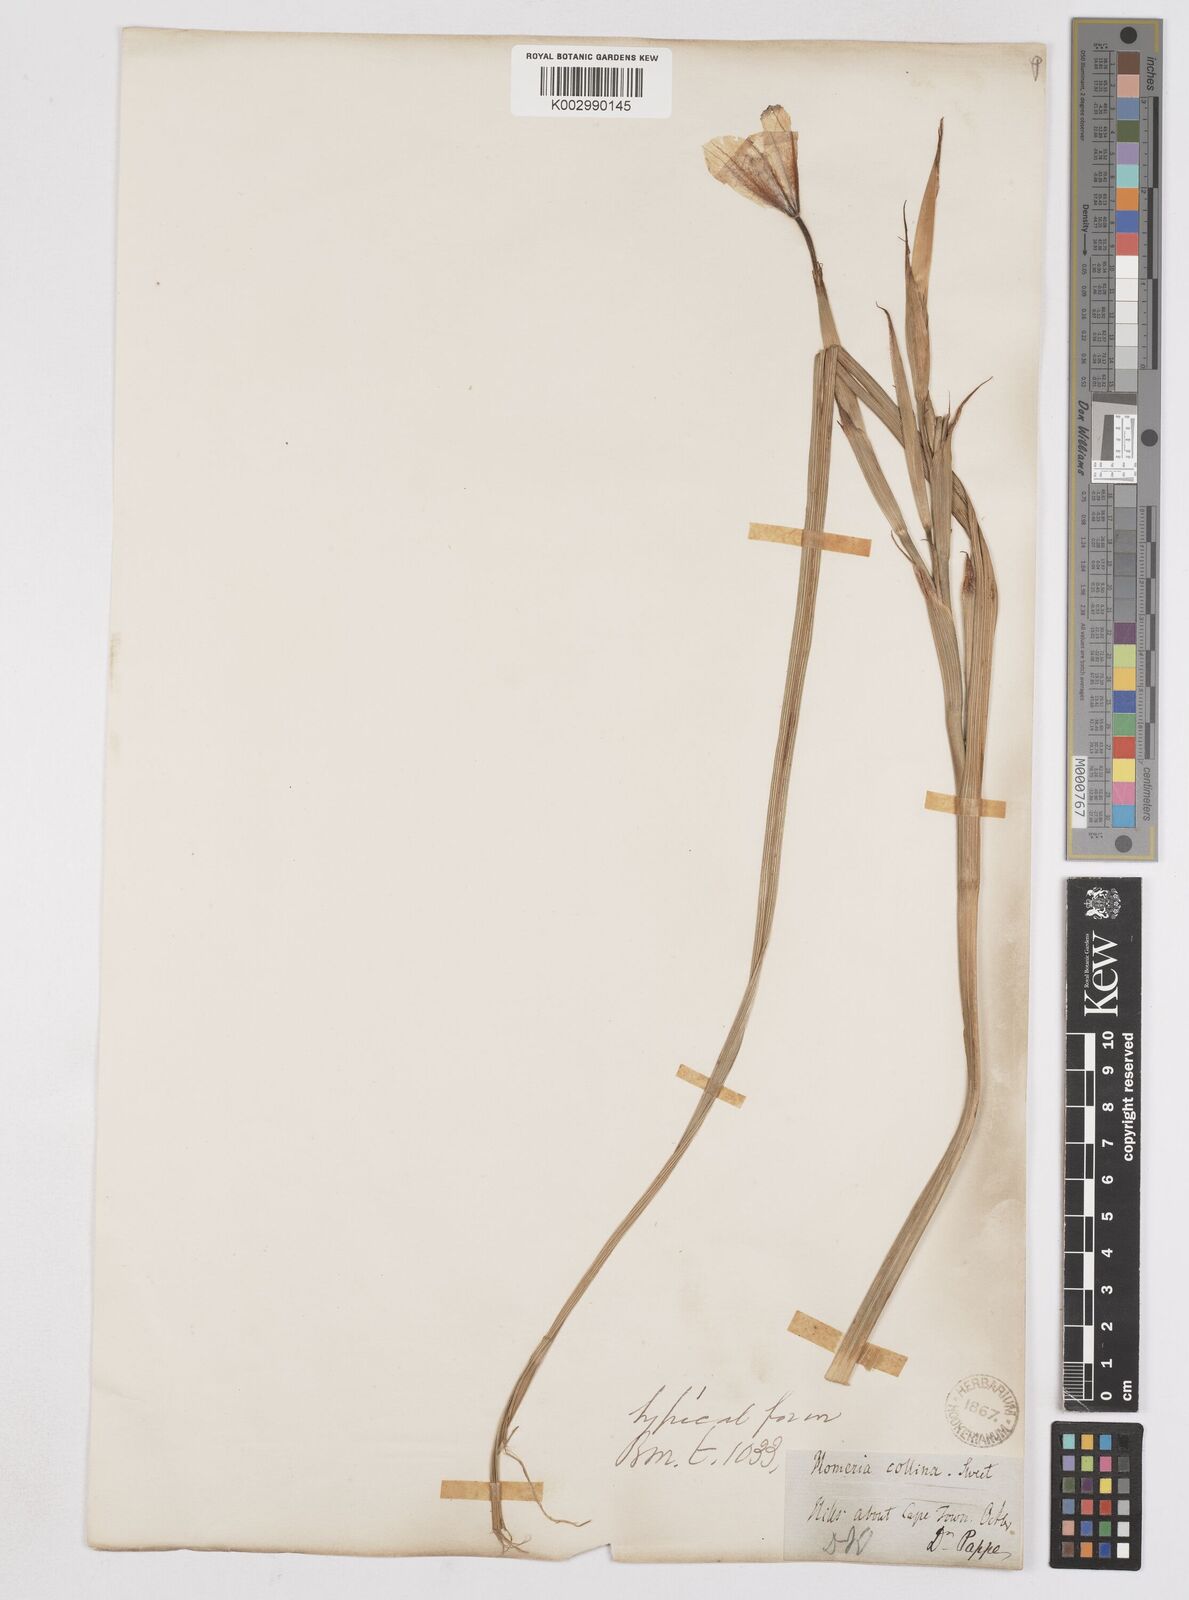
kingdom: Plantae
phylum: Tracheophyta
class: Liliopsida
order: Asparagales
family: Iridaceae
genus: Moraea
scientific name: Moraea collina
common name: Cape-tulip
